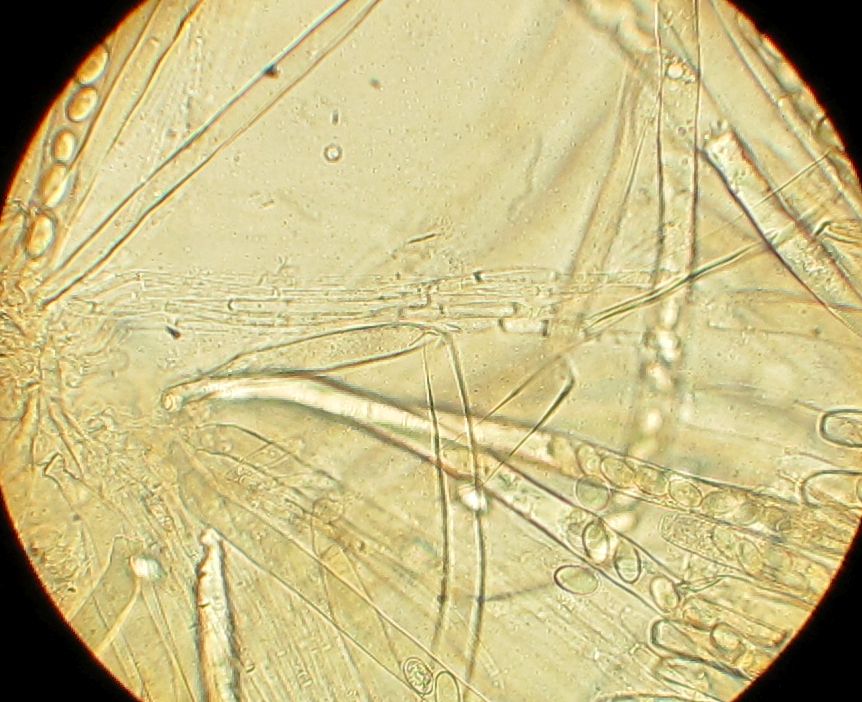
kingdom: Fungi
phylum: Ascomycota
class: Pezizomycetes
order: Pezizales
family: Pezizaceae
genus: Peziza
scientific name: Peziza
